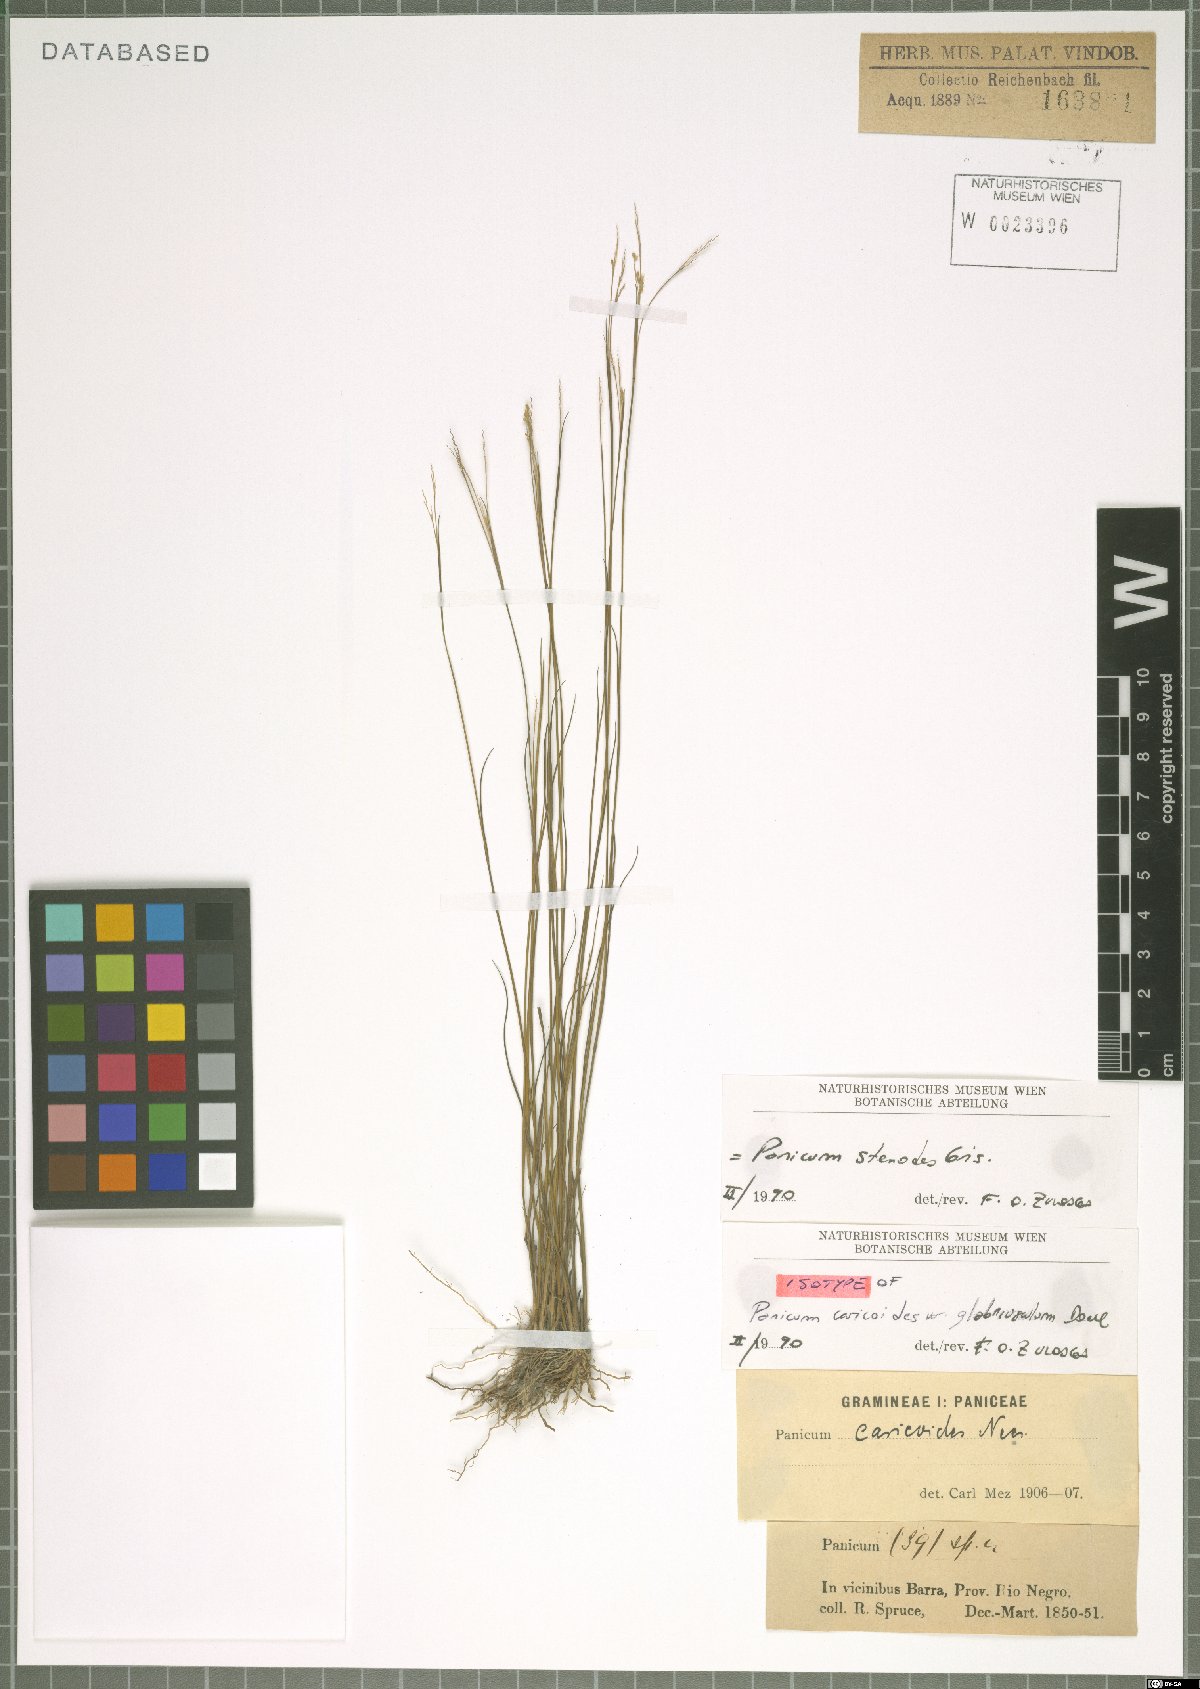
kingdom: Plantae
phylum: Tracheophyta
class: Liliopsida
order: Poales
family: Poaceae
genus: Coleataenia
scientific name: Coleataenia stenodes
